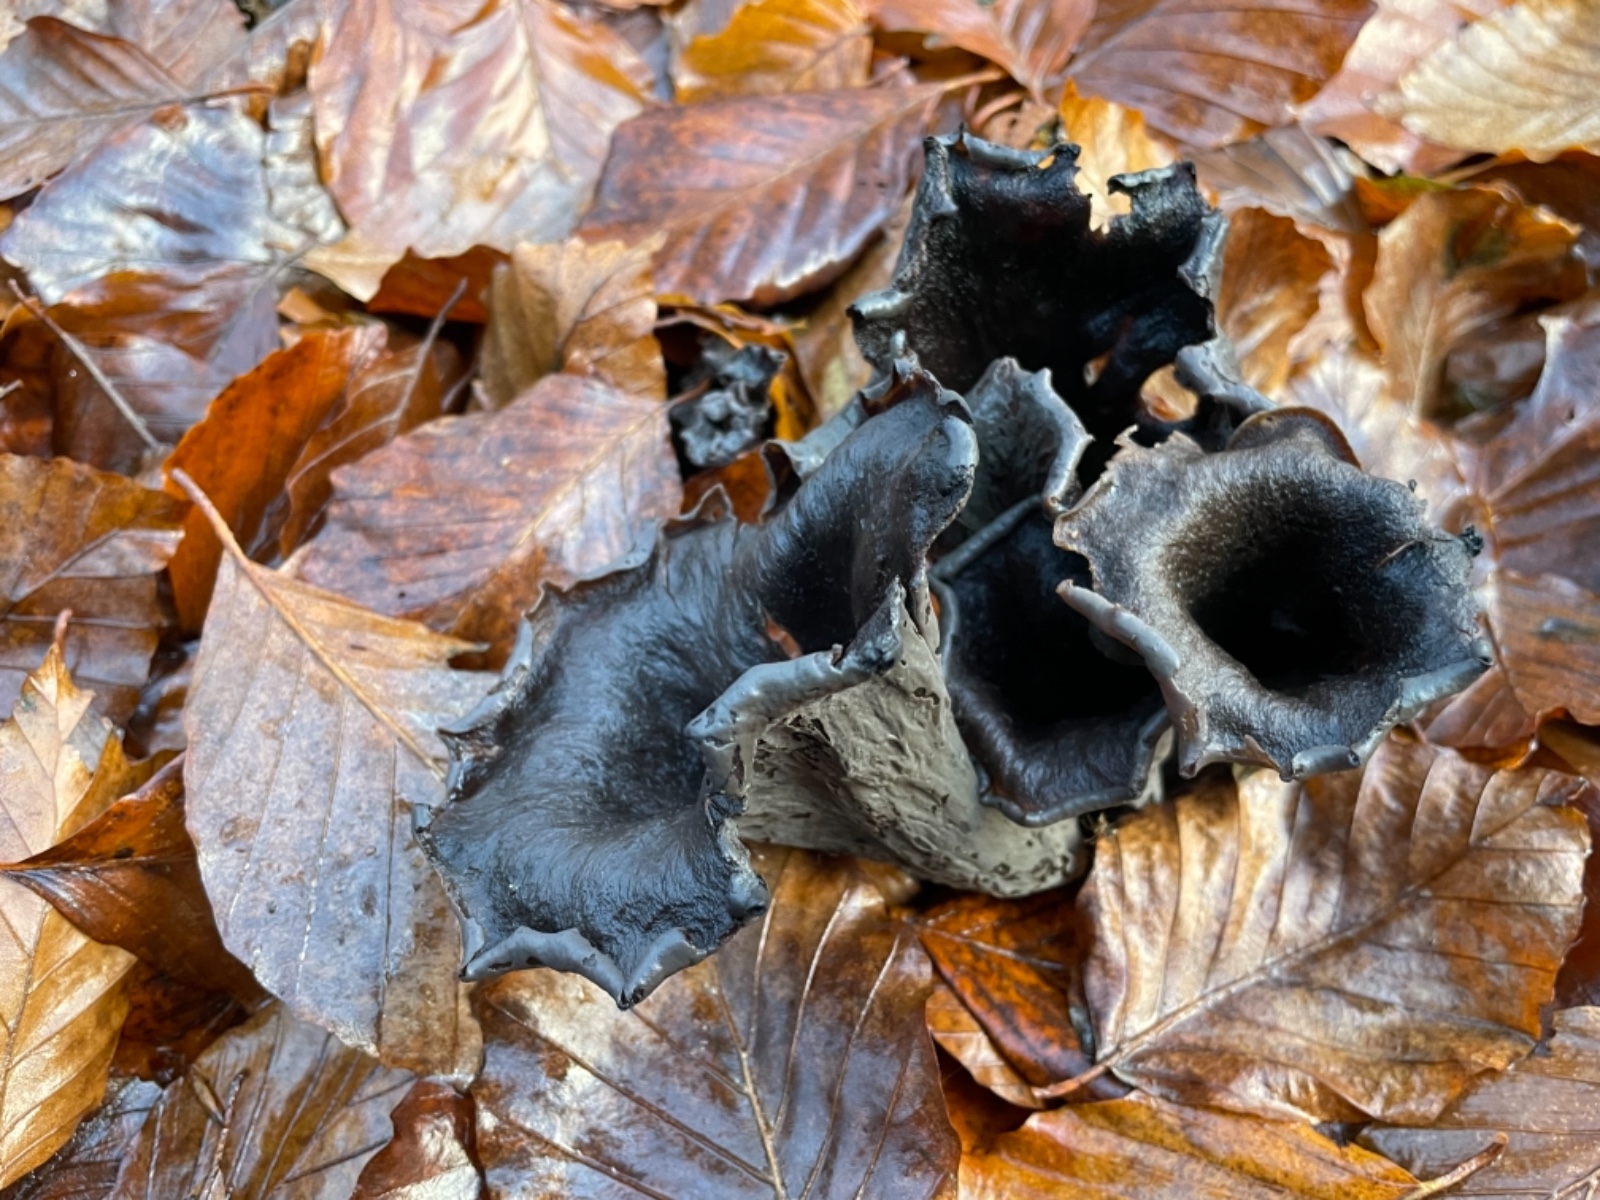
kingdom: Fungi
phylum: Basidiomycota
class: Agaricomycetes
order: Cantharellales
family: Hydnaceae
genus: Craterellus
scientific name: Craterellus cornucopioides
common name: trompetsvamp
